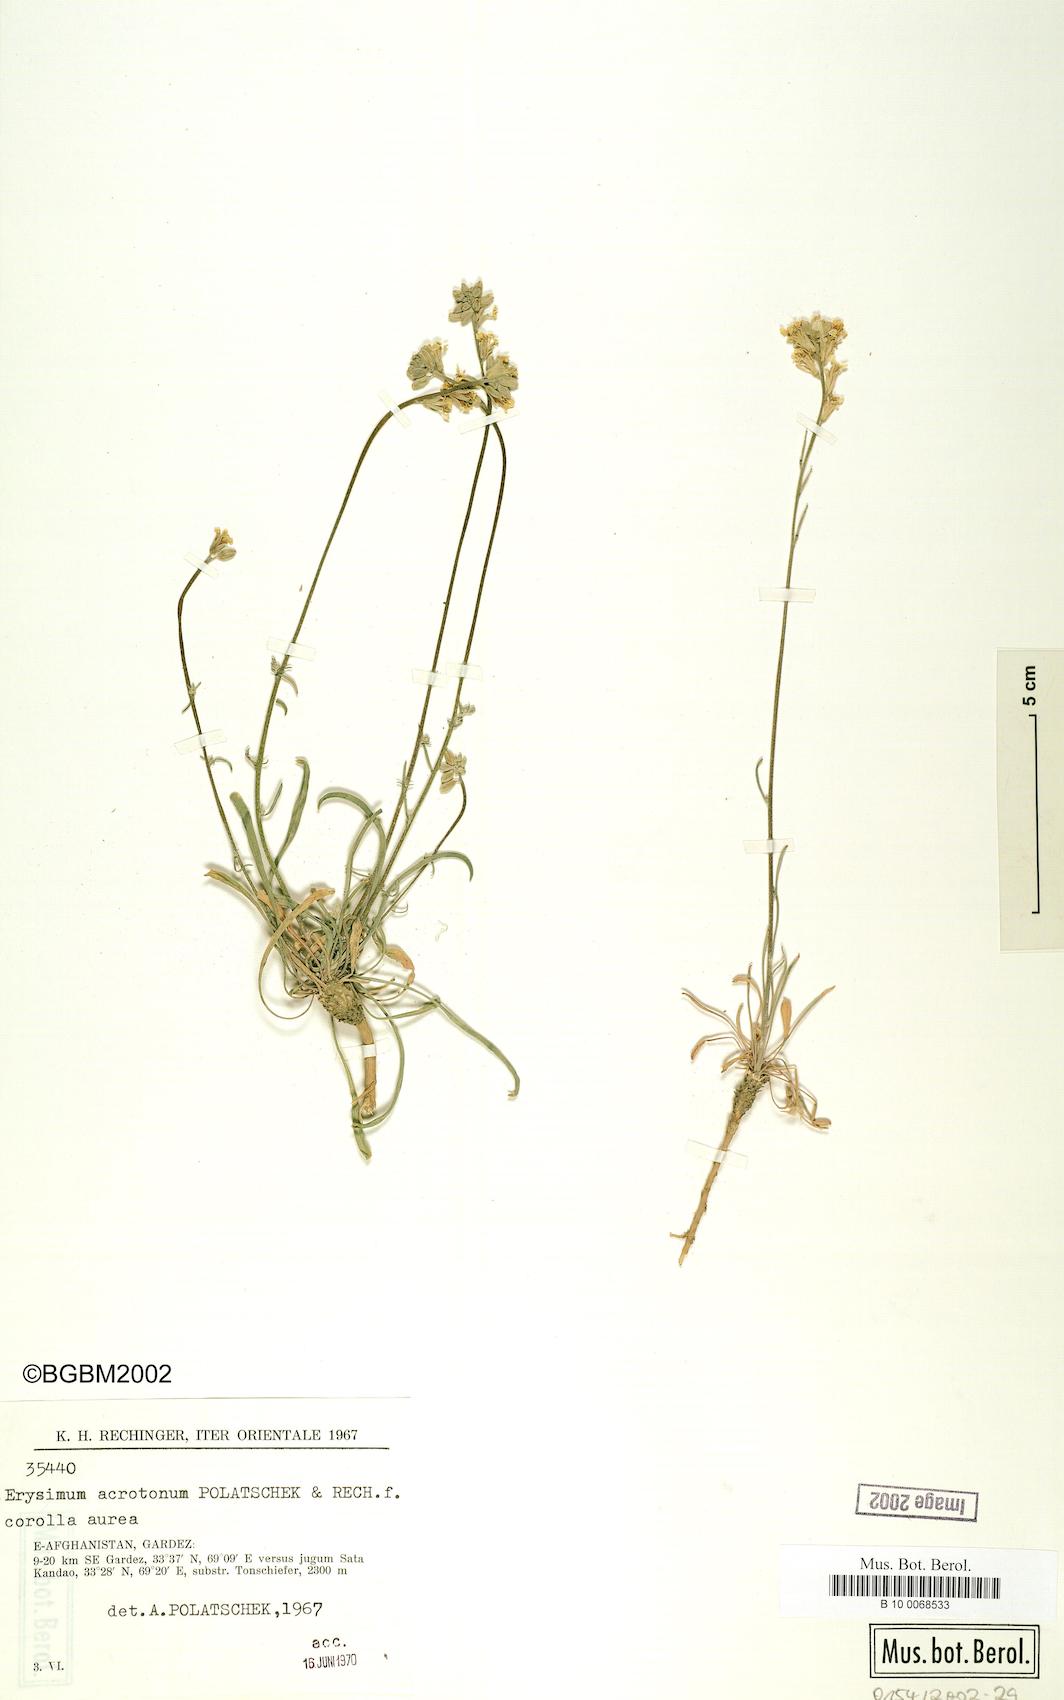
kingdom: Plantae
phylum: Tracheophyta
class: Magnoliopsida
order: Brassicales
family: Brassicaceae
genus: Erysimum
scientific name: Erysimum acrotonum
